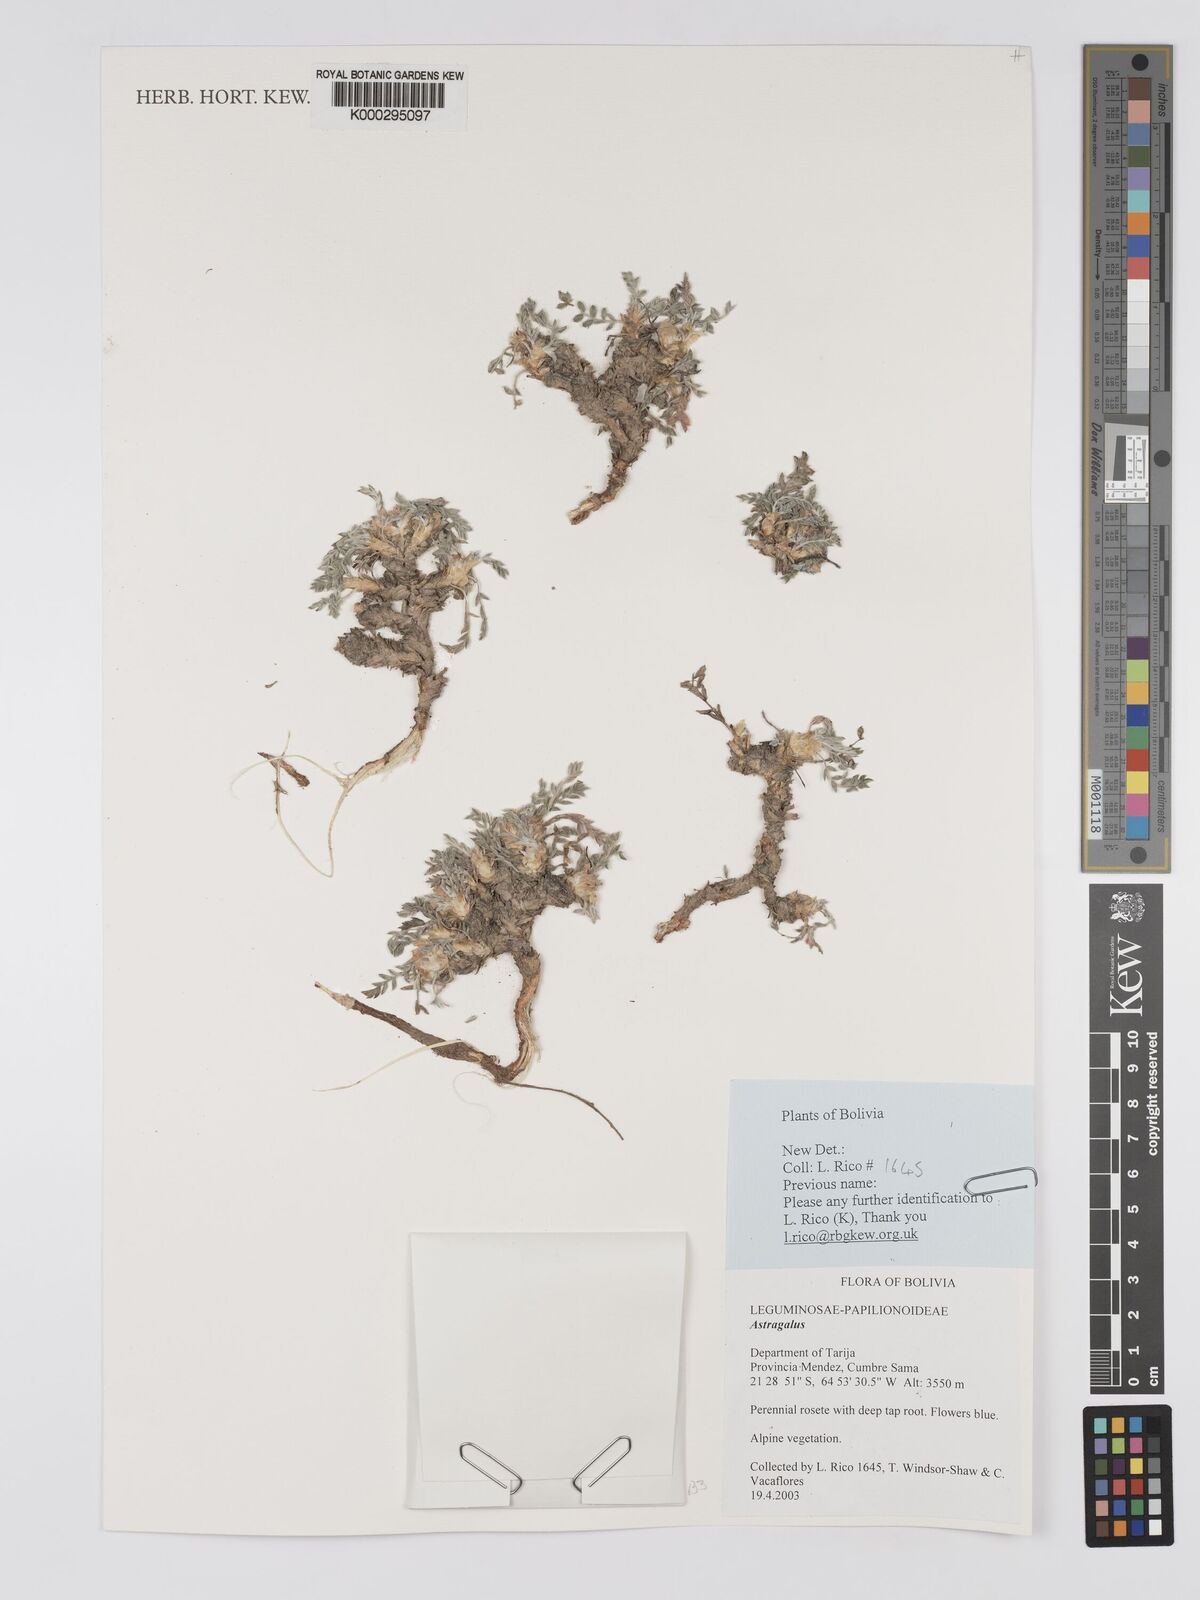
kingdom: Plantae
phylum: Tracheophyta
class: Magnoliopsida
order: Fabales
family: Fabaceae
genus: Astragalus
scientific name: Astragalus
